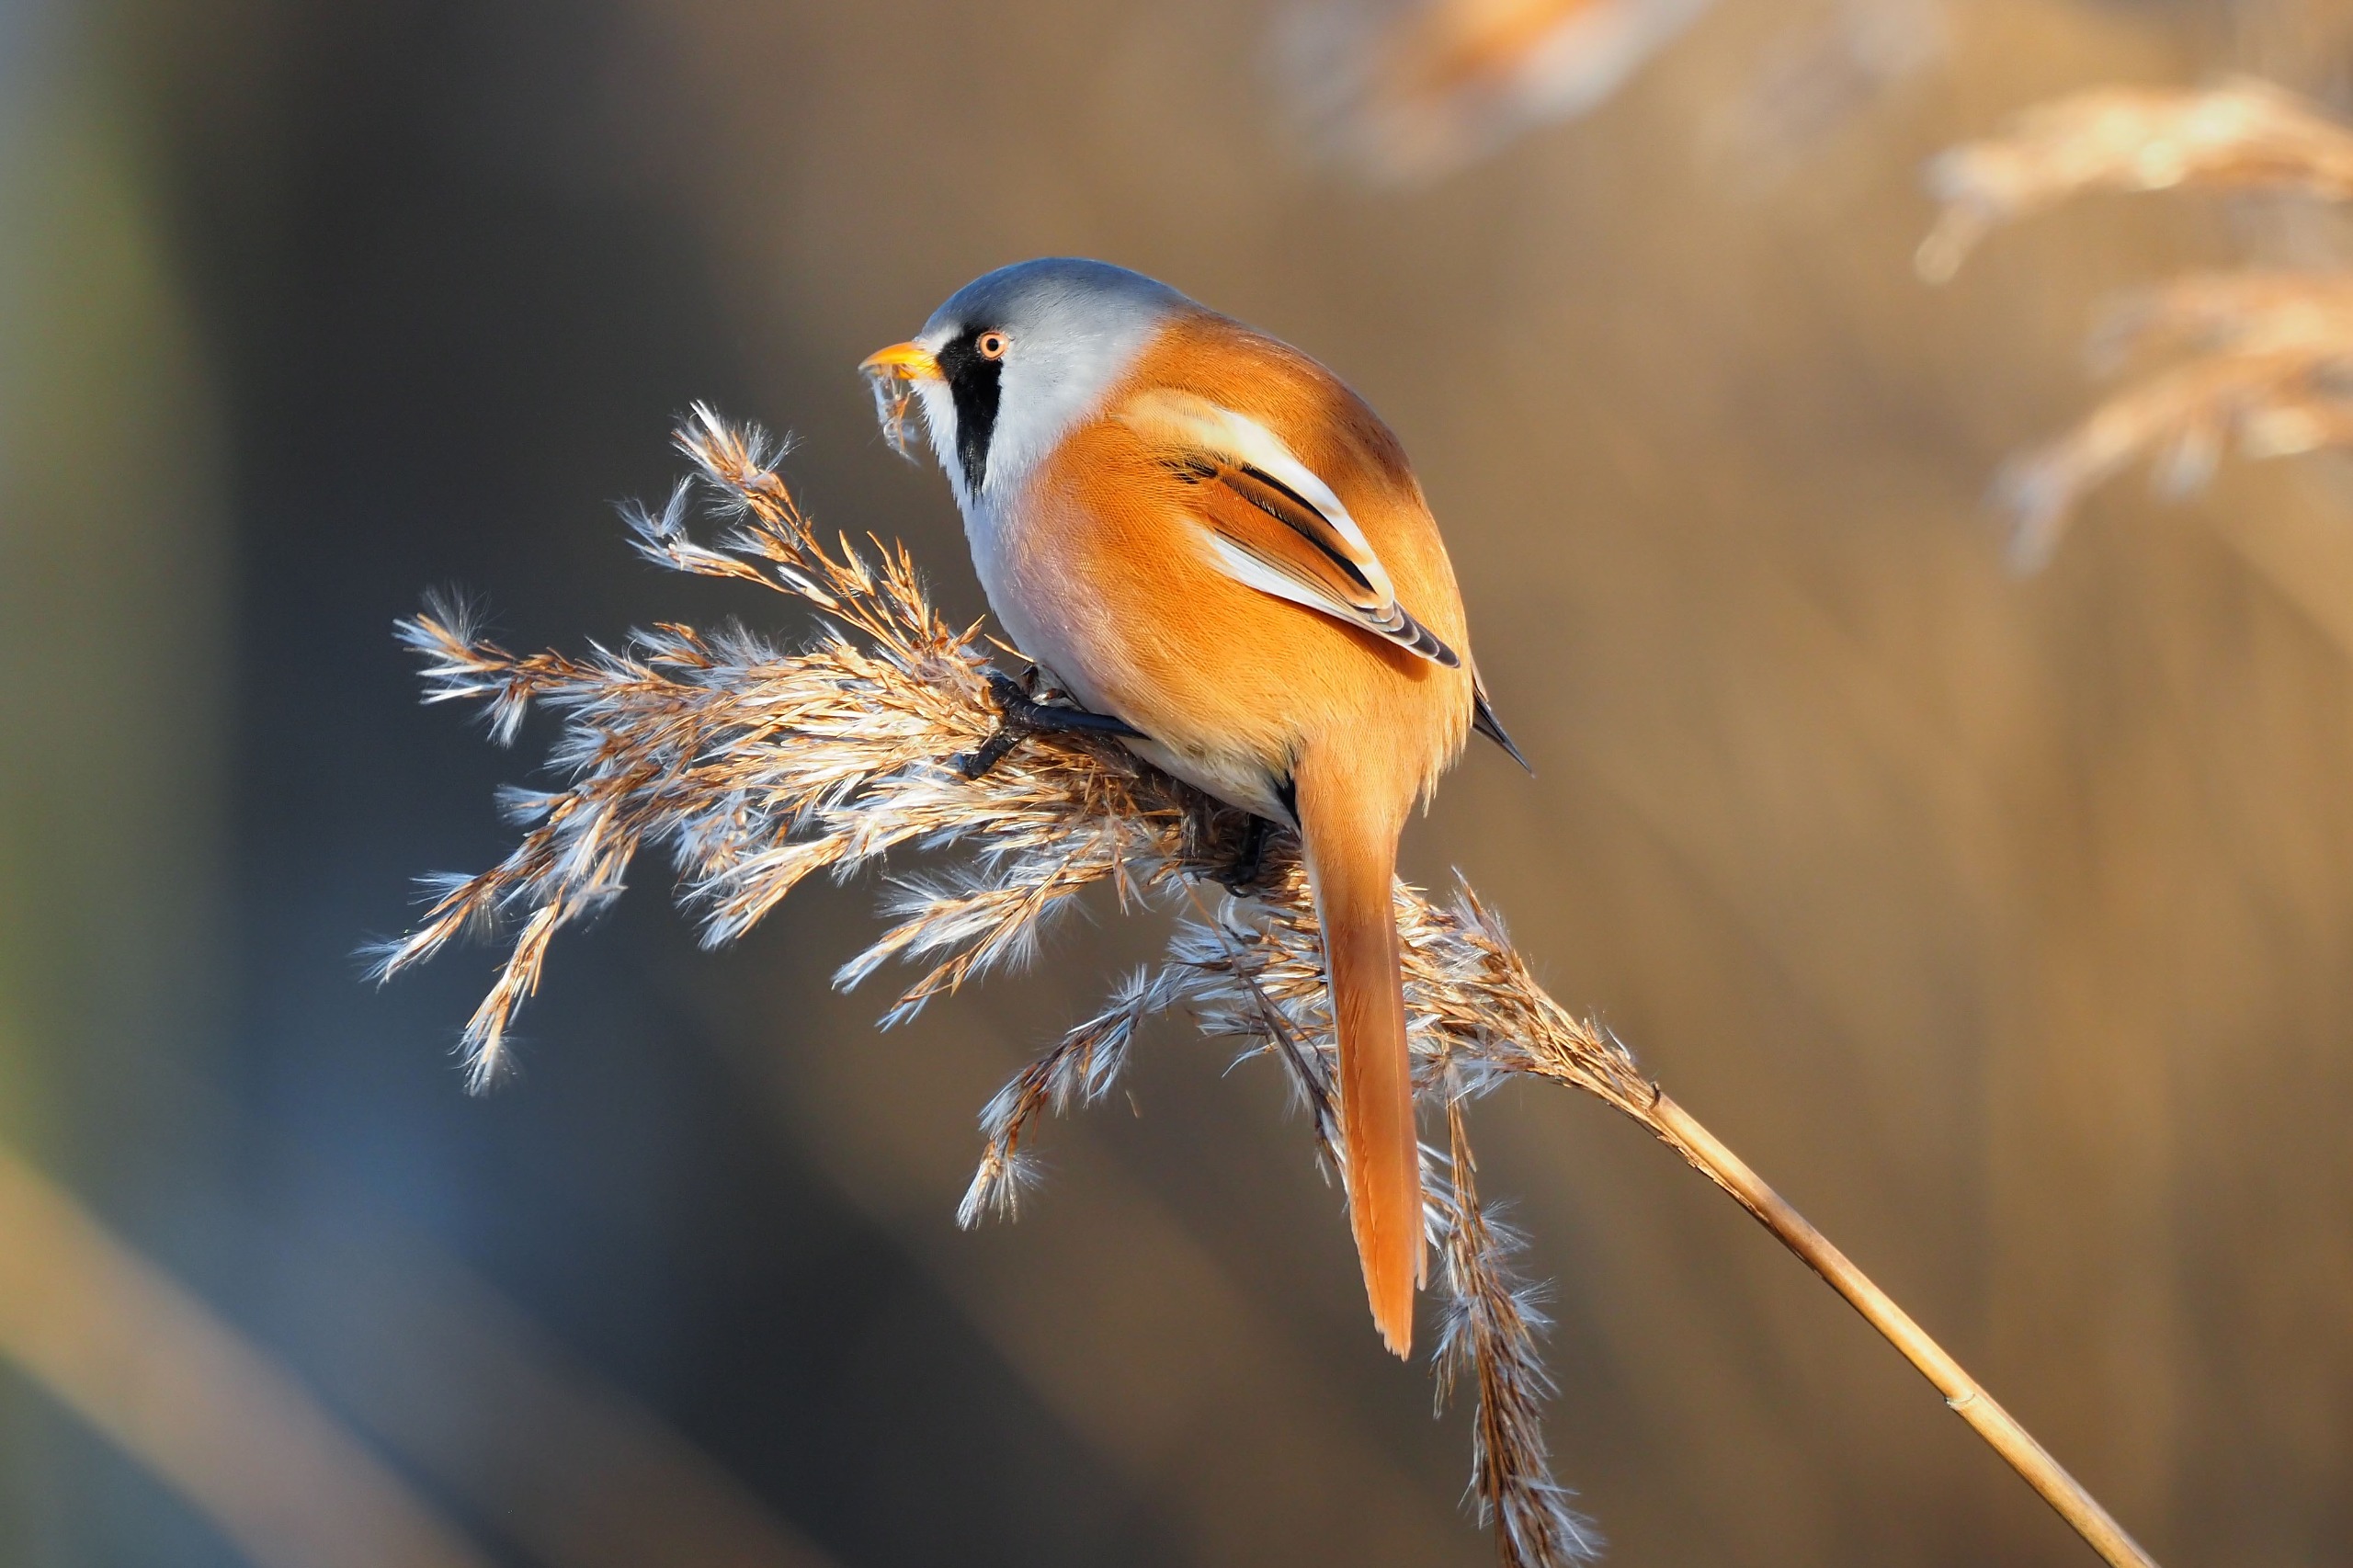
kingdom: Animalia
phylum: Chordata
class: Aves
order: Passeriformes
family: Panuridae
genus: Panurus
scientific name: Panurus biarmicus
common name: Skægmejse
